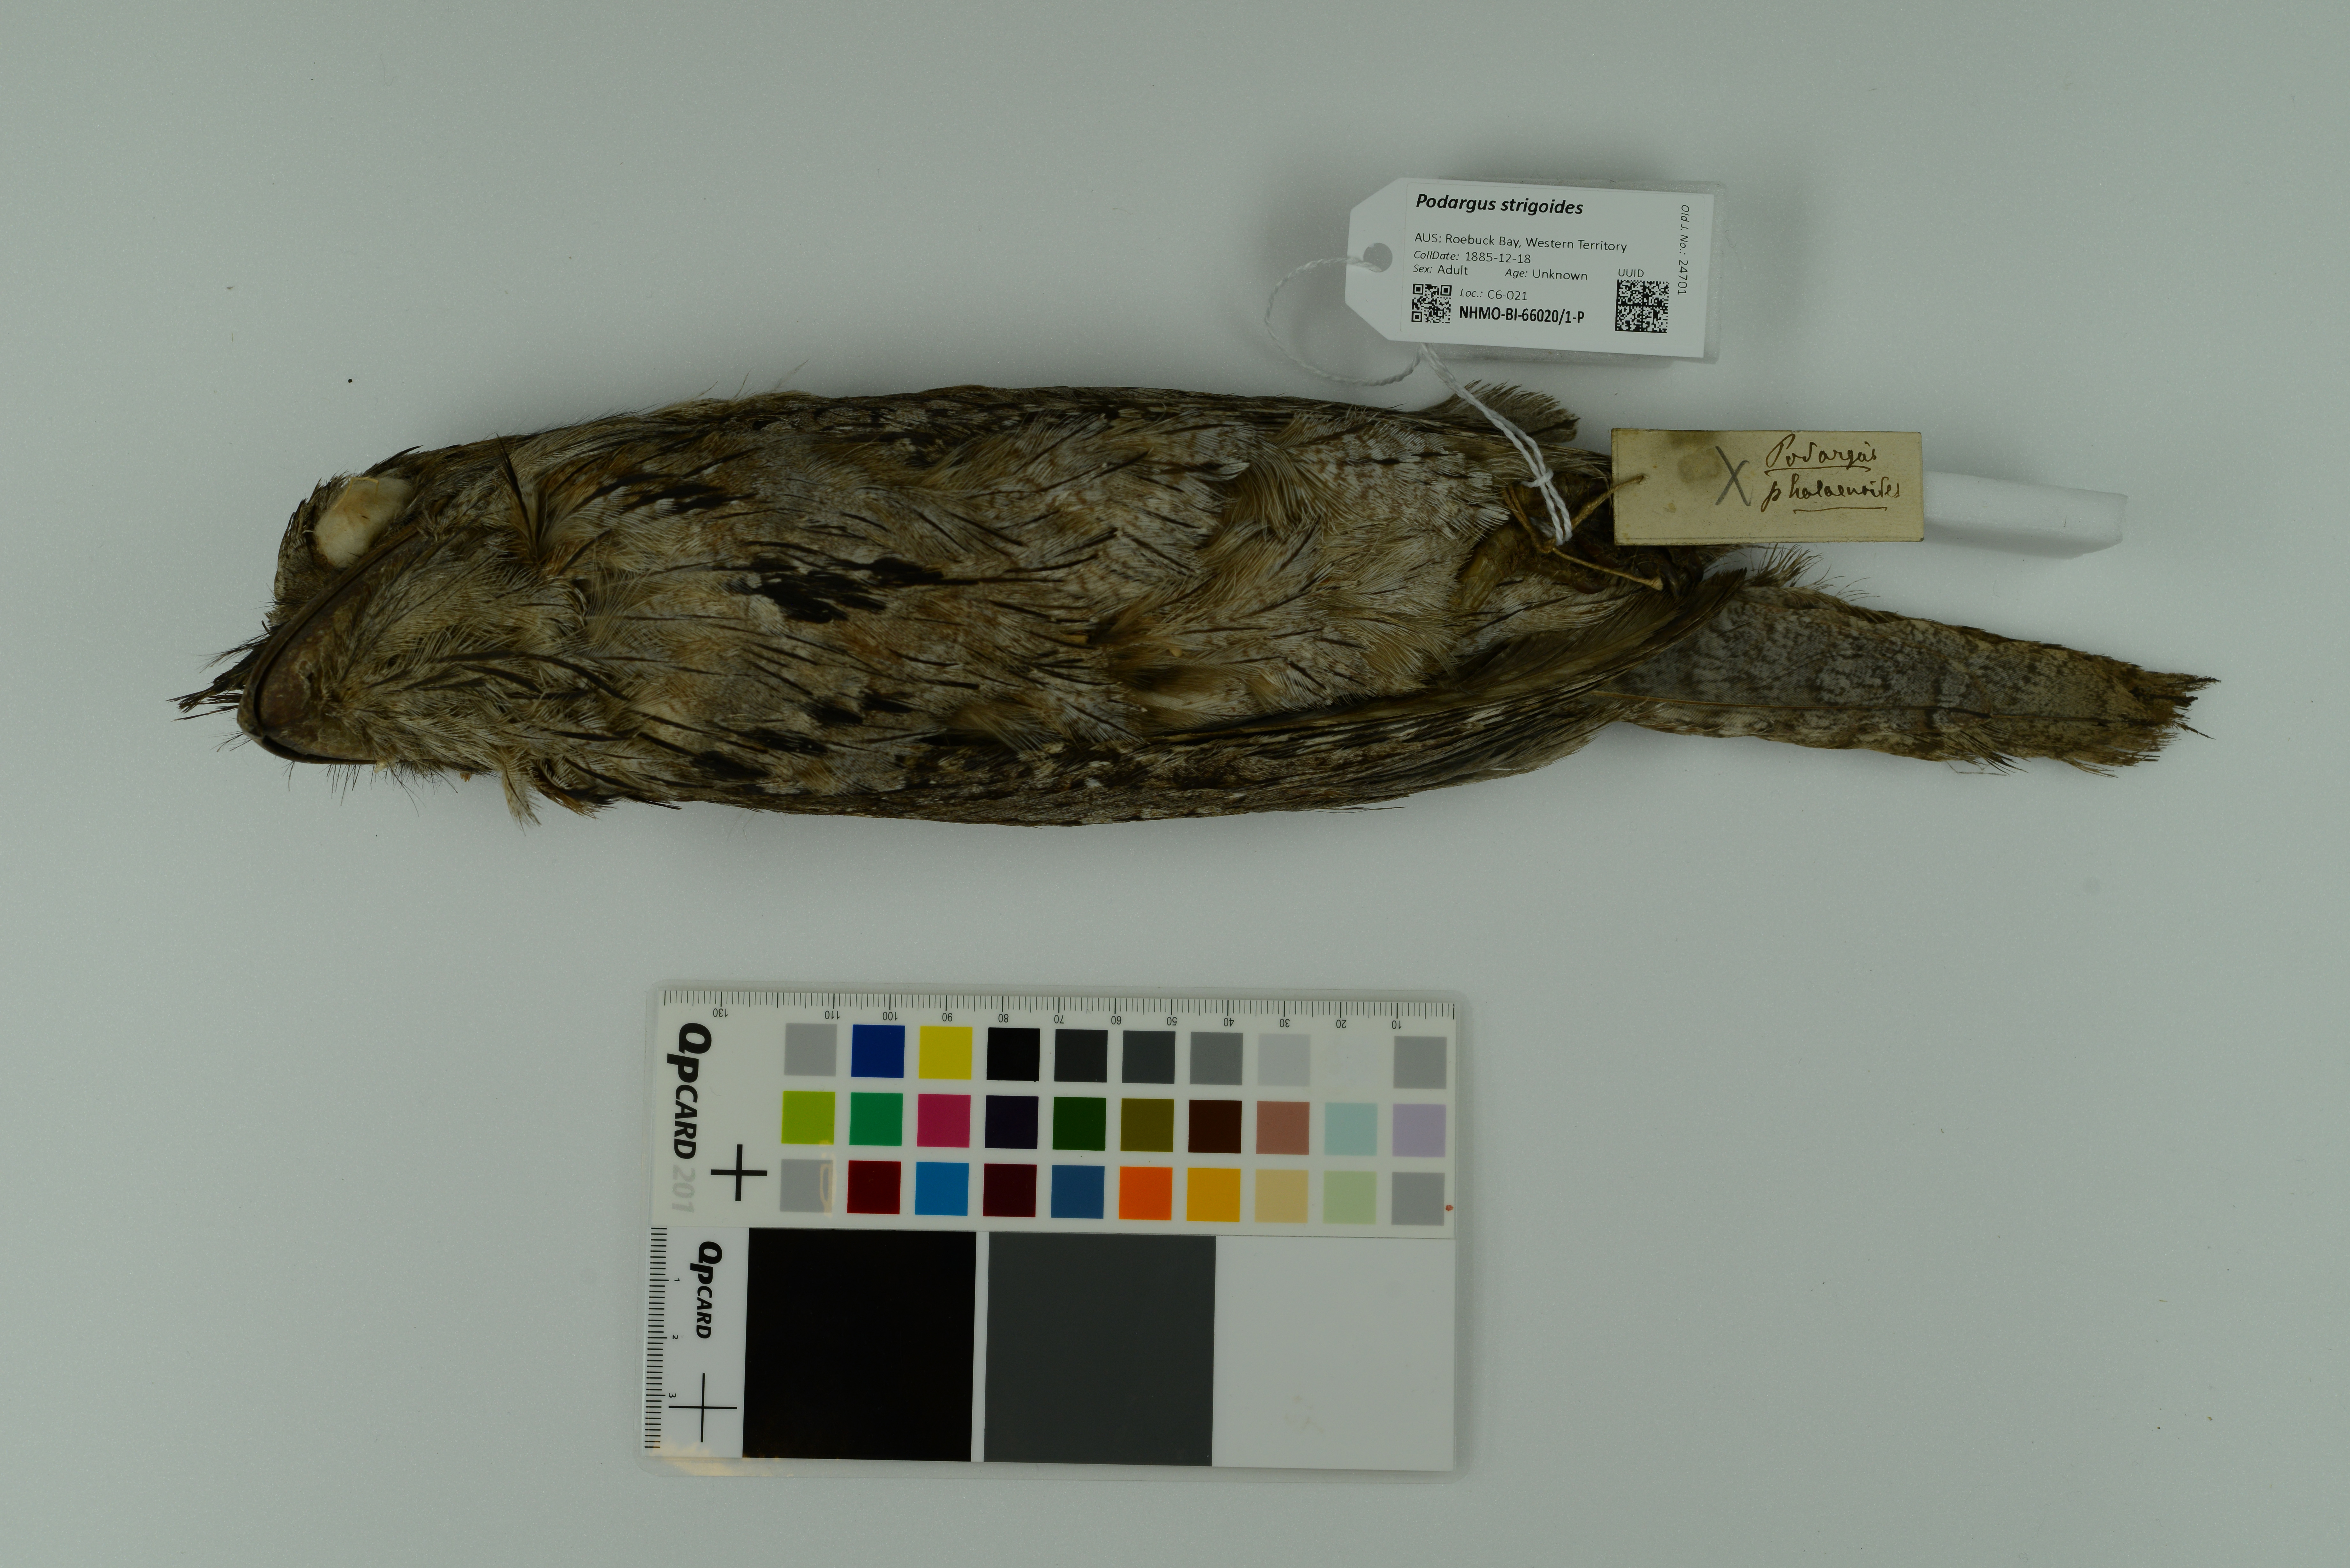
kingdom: Animalia
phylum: Chordata
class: Aves
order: Caprimulgiformes
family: Podargidae
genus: Podargus
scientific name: Podargus strigoides
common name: Tawny frogmouth
